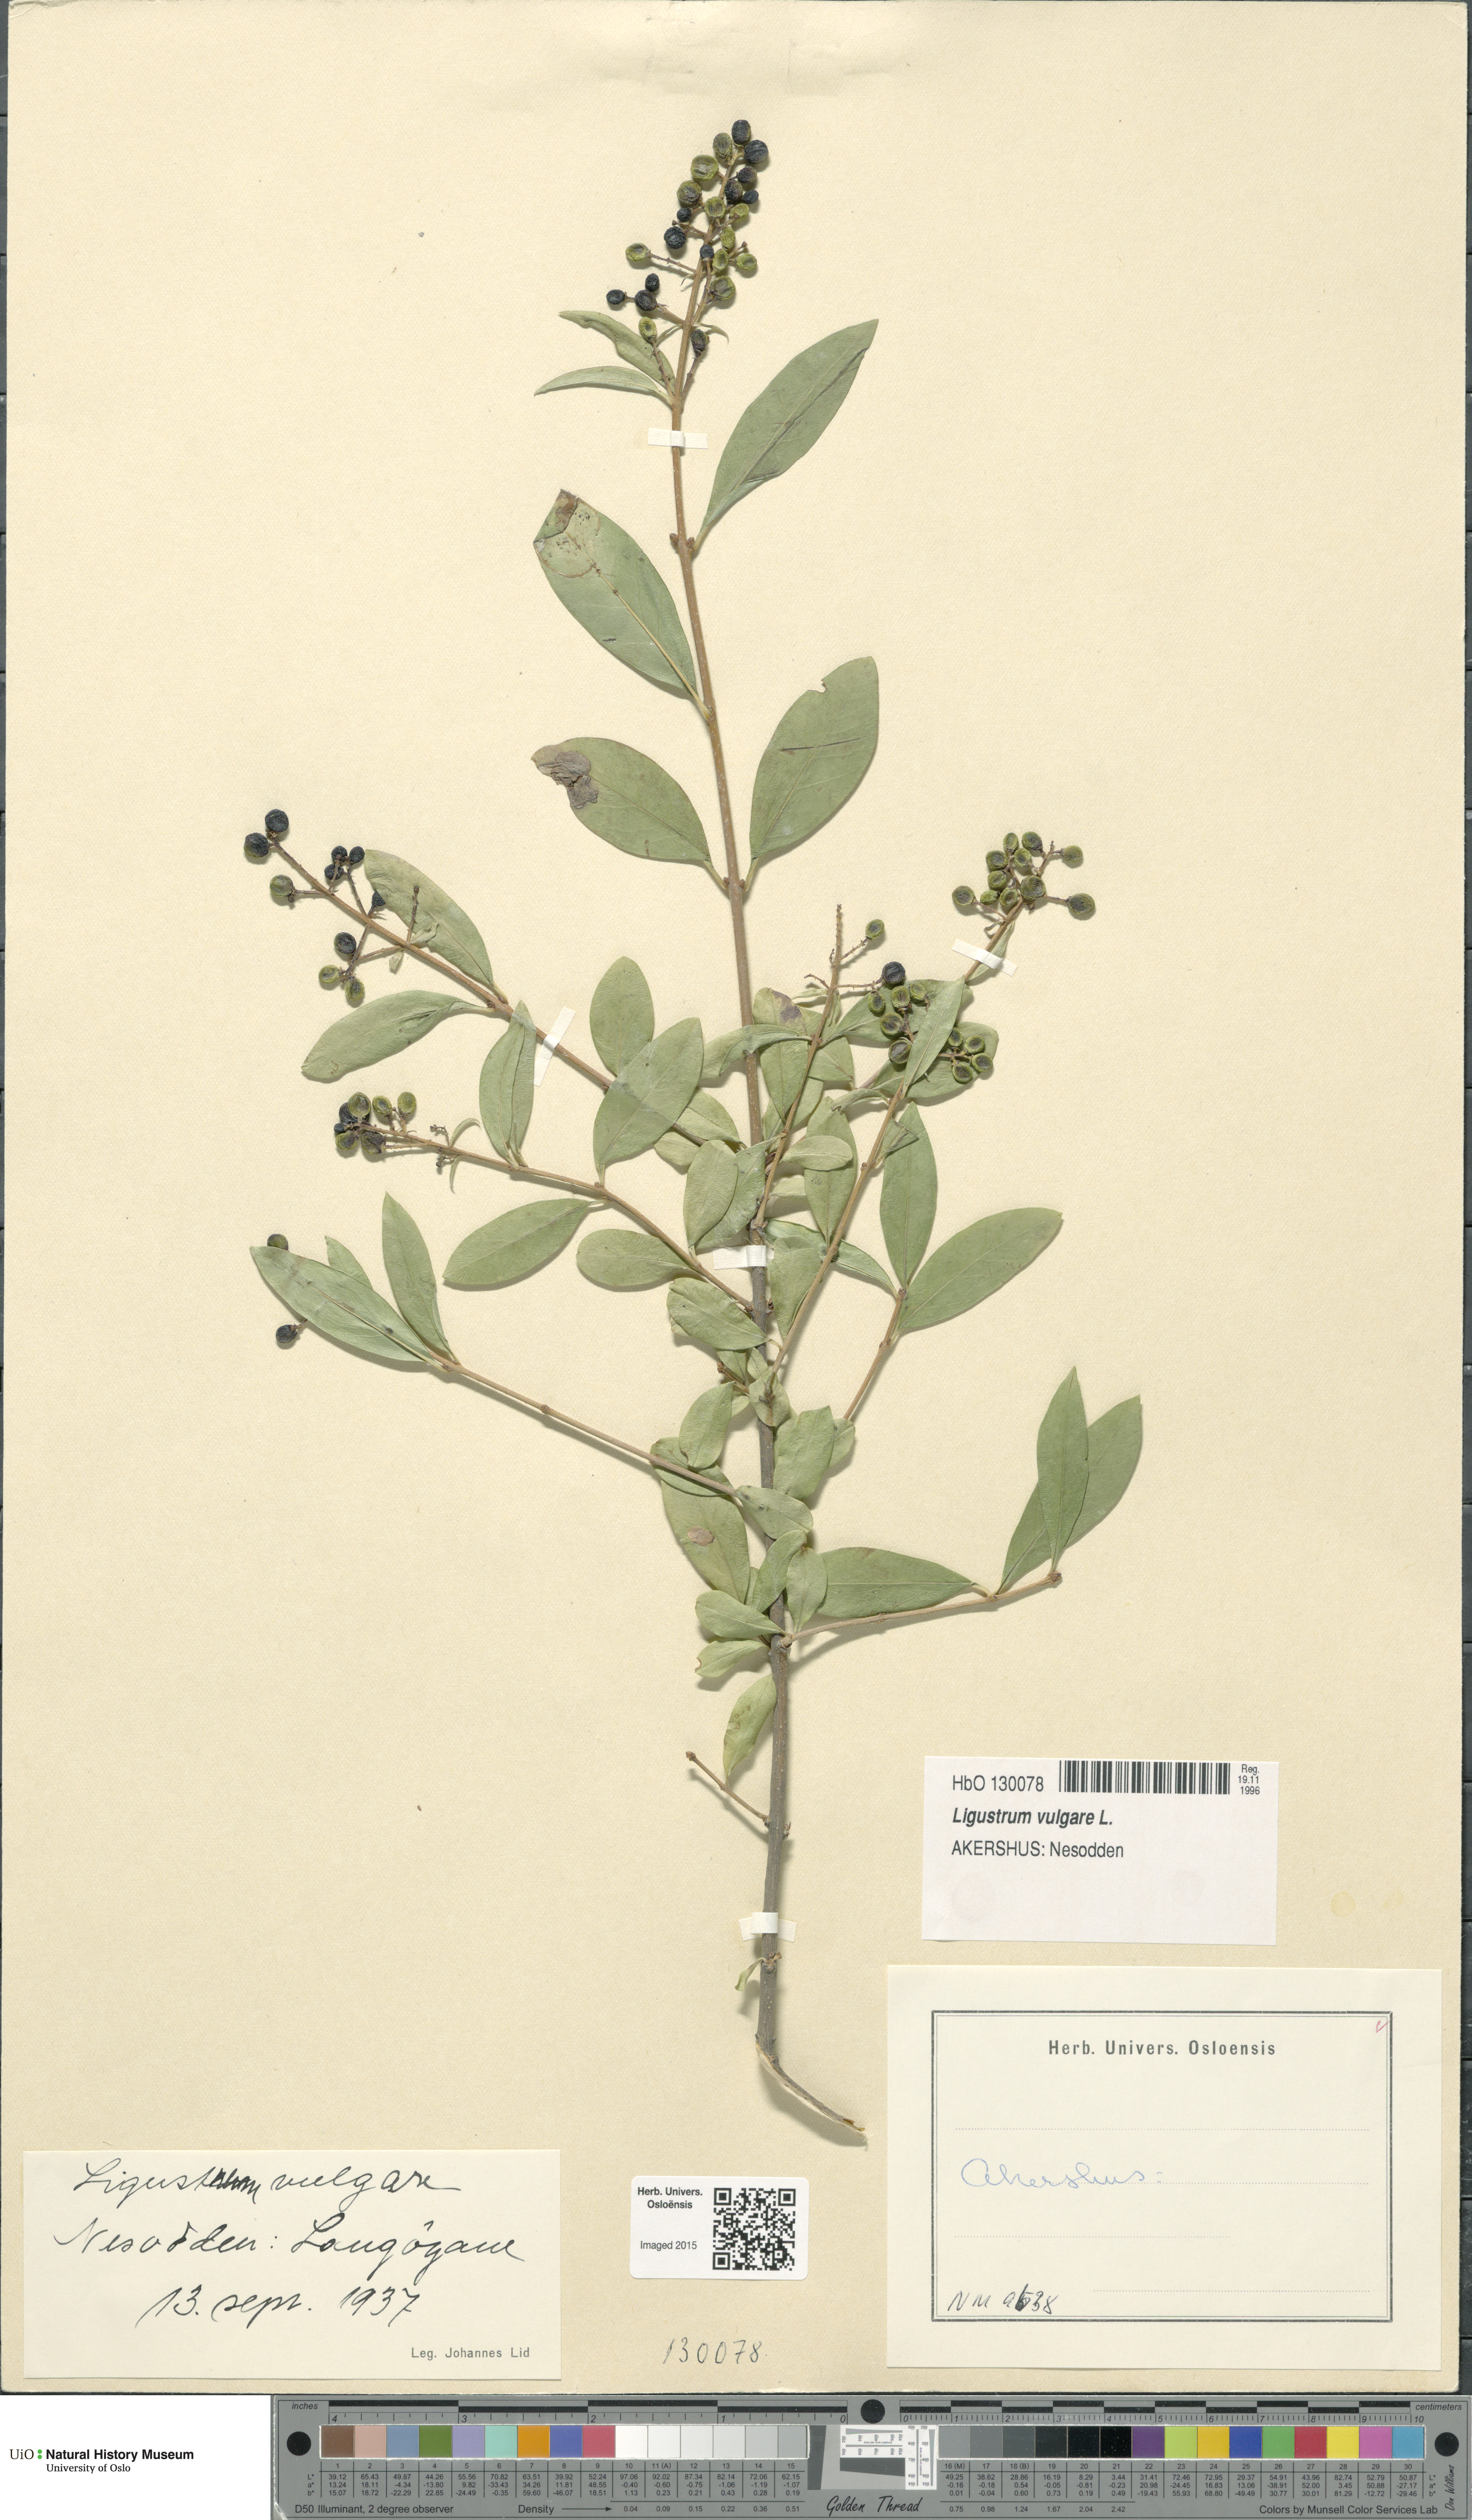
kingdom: Plantae
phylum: Tracheophyta
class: Magnoliopsida
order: Lamiales
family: Oleaceae
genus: Ligustrum
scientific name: Ligustrum vulgare
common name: Wild privet
